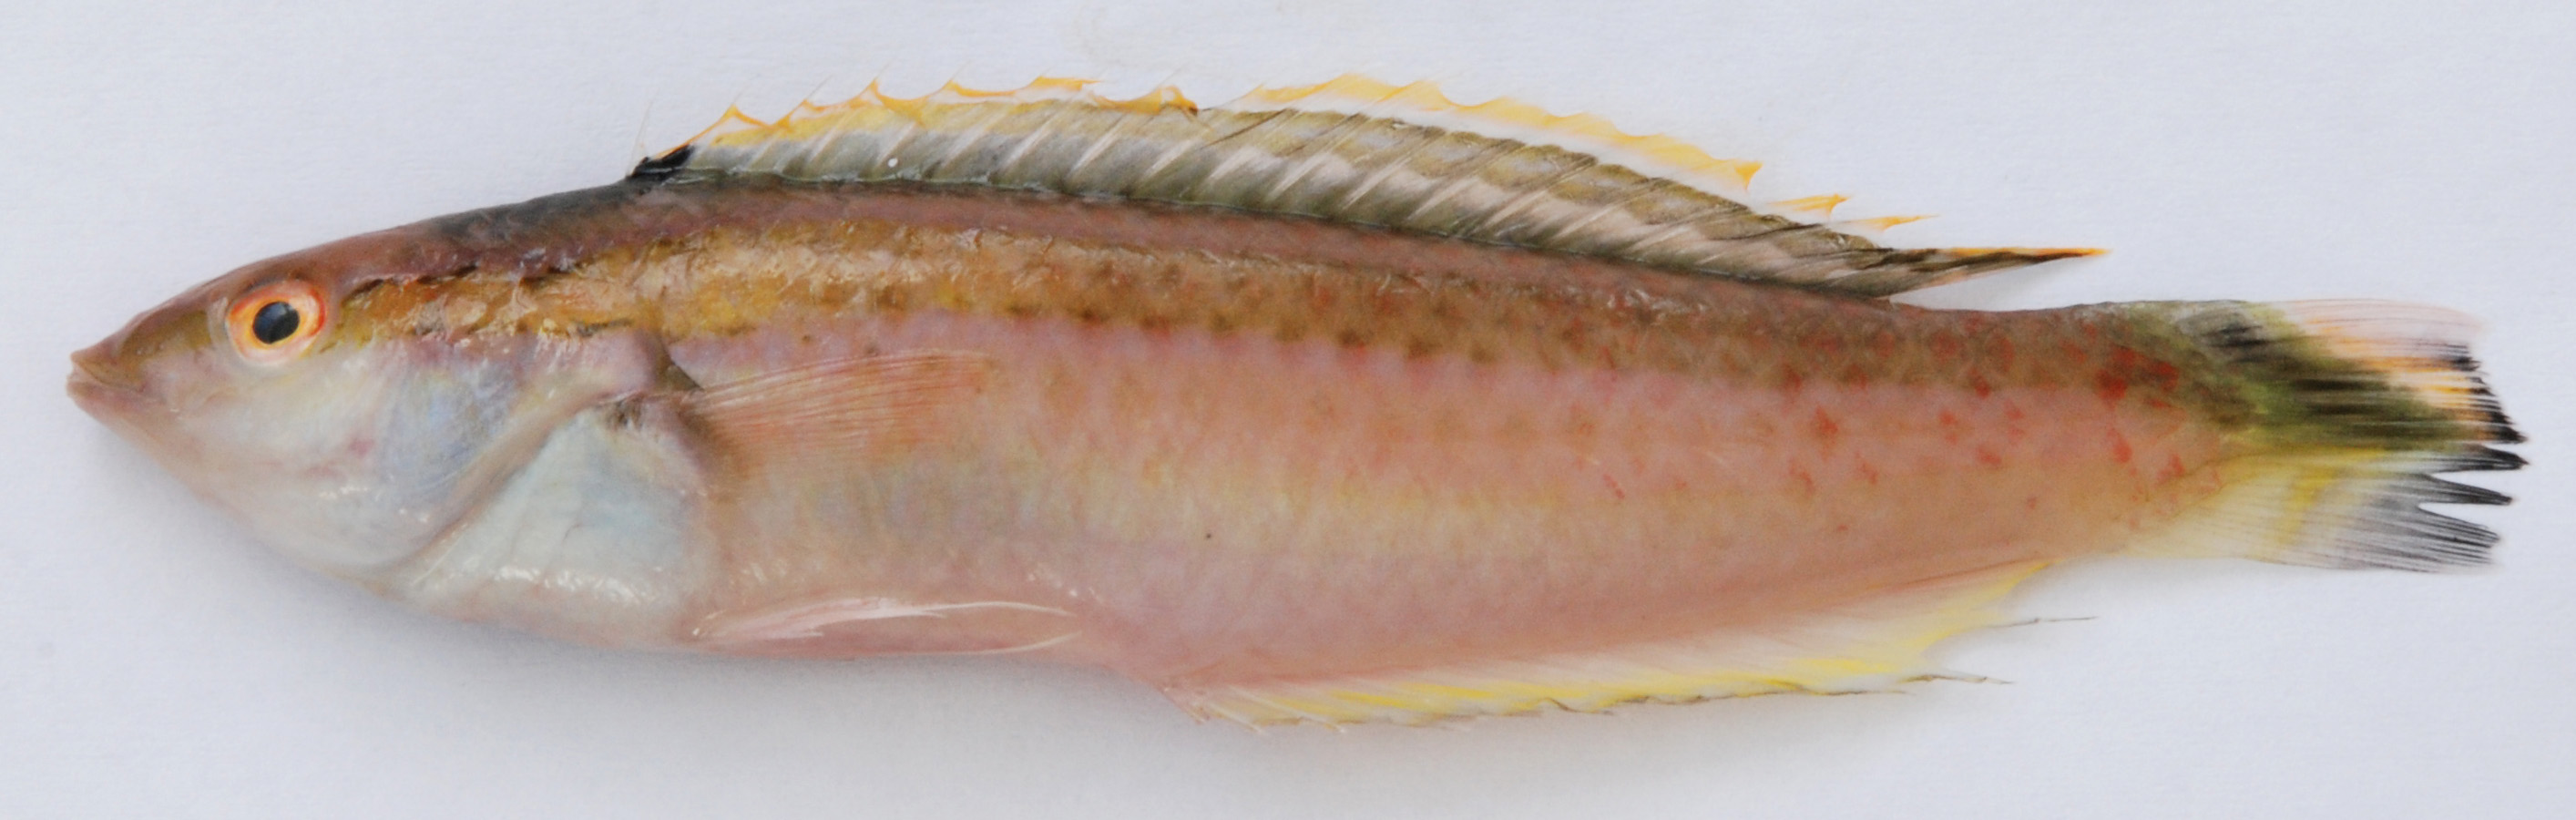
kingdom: Animalia
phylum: Chordata
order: Perciformes
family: Labridae
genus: Halichoeres
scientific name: Halichoeres leptotaenia
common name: Thinstripe wrasse
